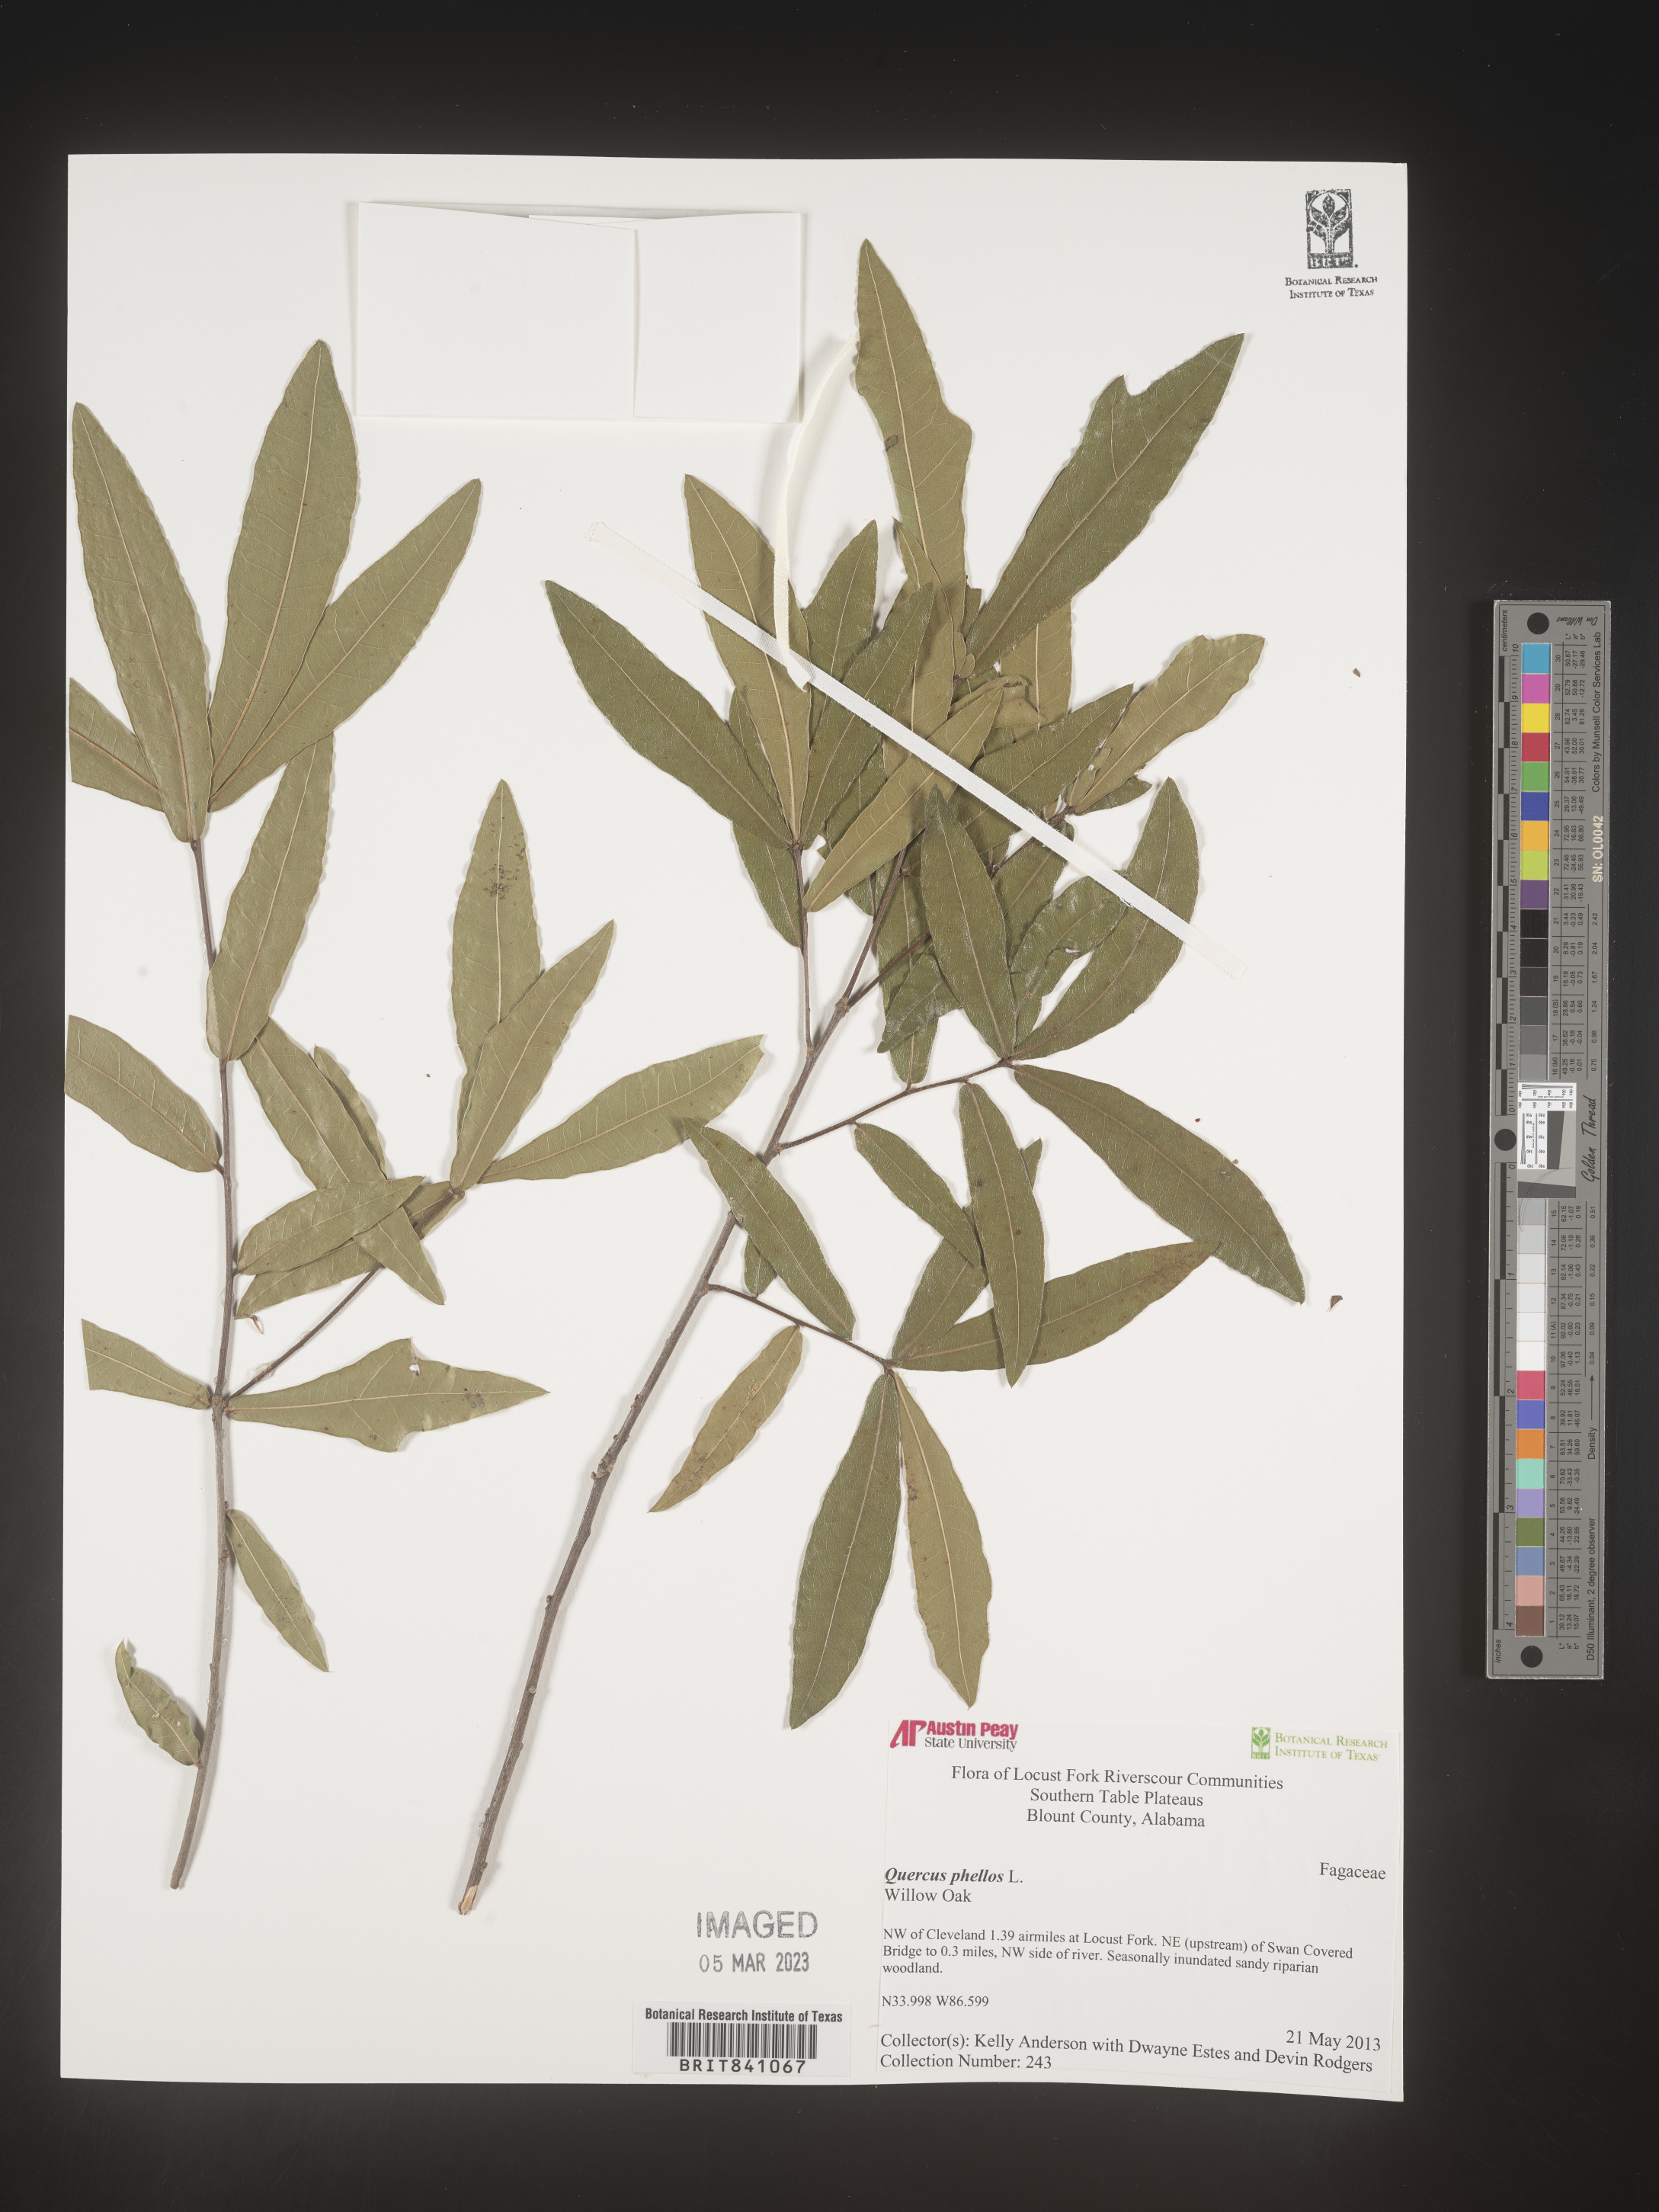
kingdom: Plantae
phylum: Tracheophyta
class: Magnoliopsida
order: Fagales
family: Fagaceae
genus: Quercus
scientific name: Quercus phellos
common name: Willow oak
